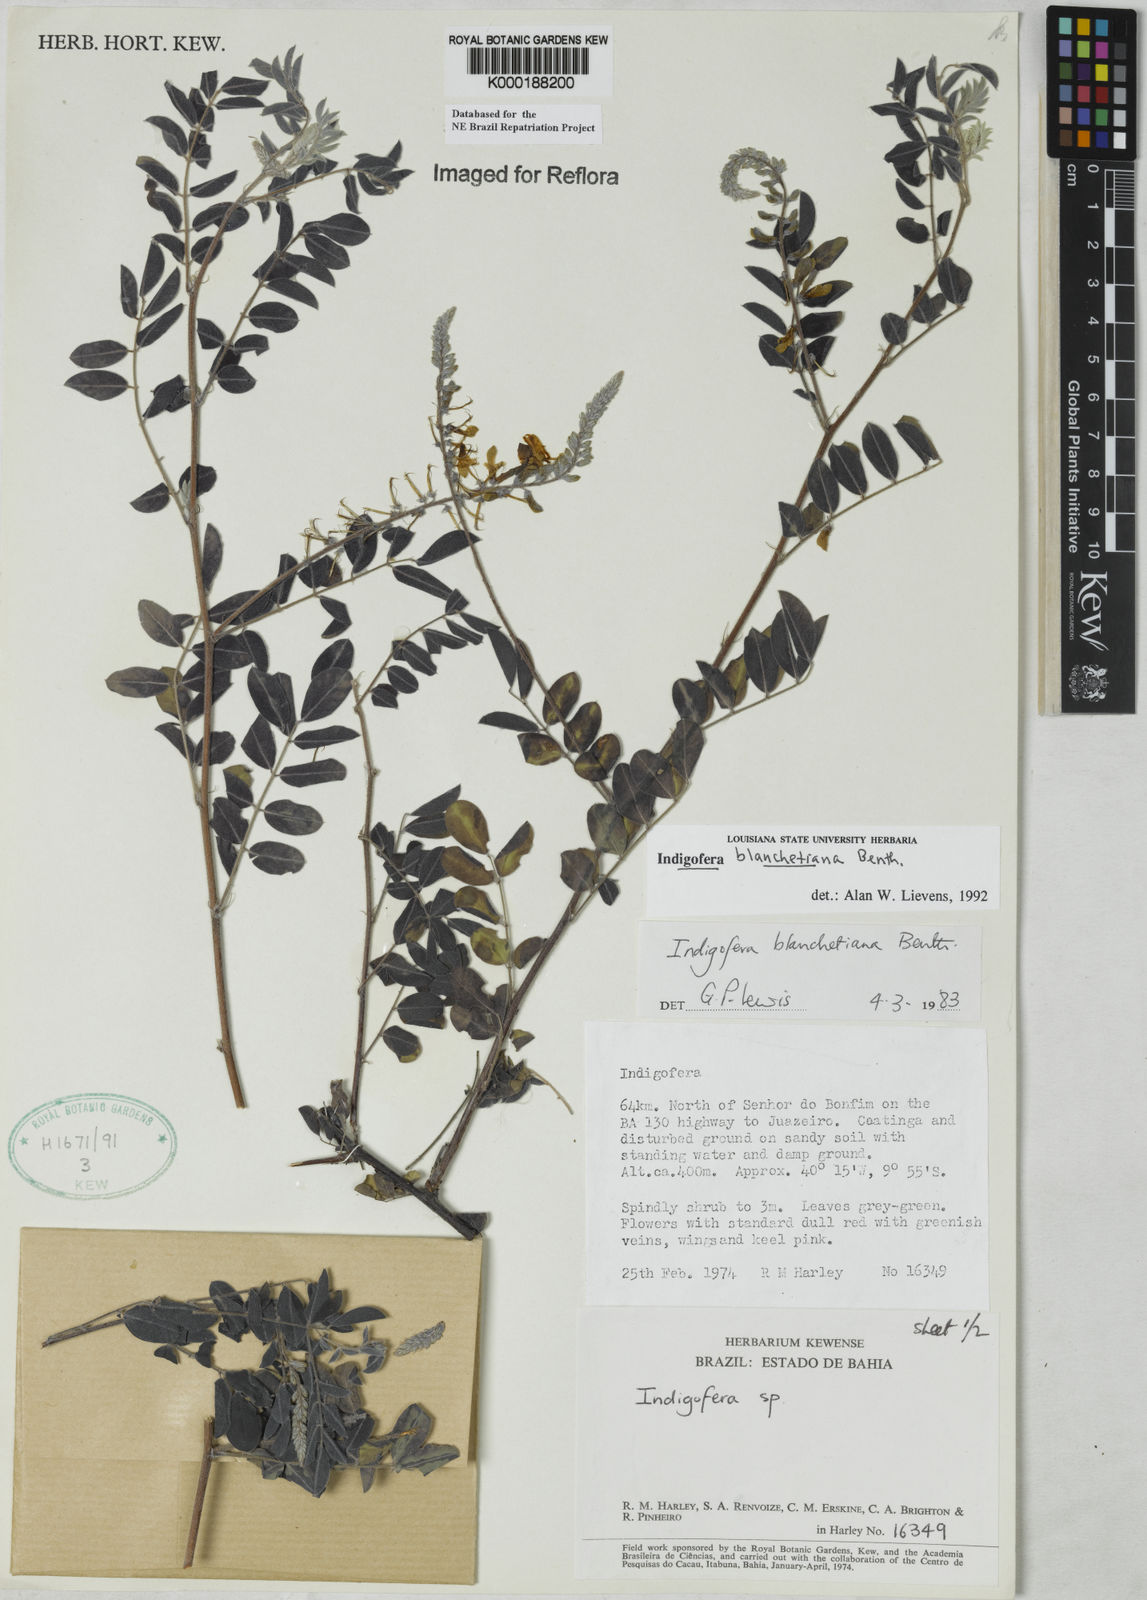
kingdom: Plantae
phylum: Tracheophyta
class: Magnoliopsida
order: Fabales
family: Fabaceae
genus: Indigofera
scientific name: Indigofera blanchetiana
